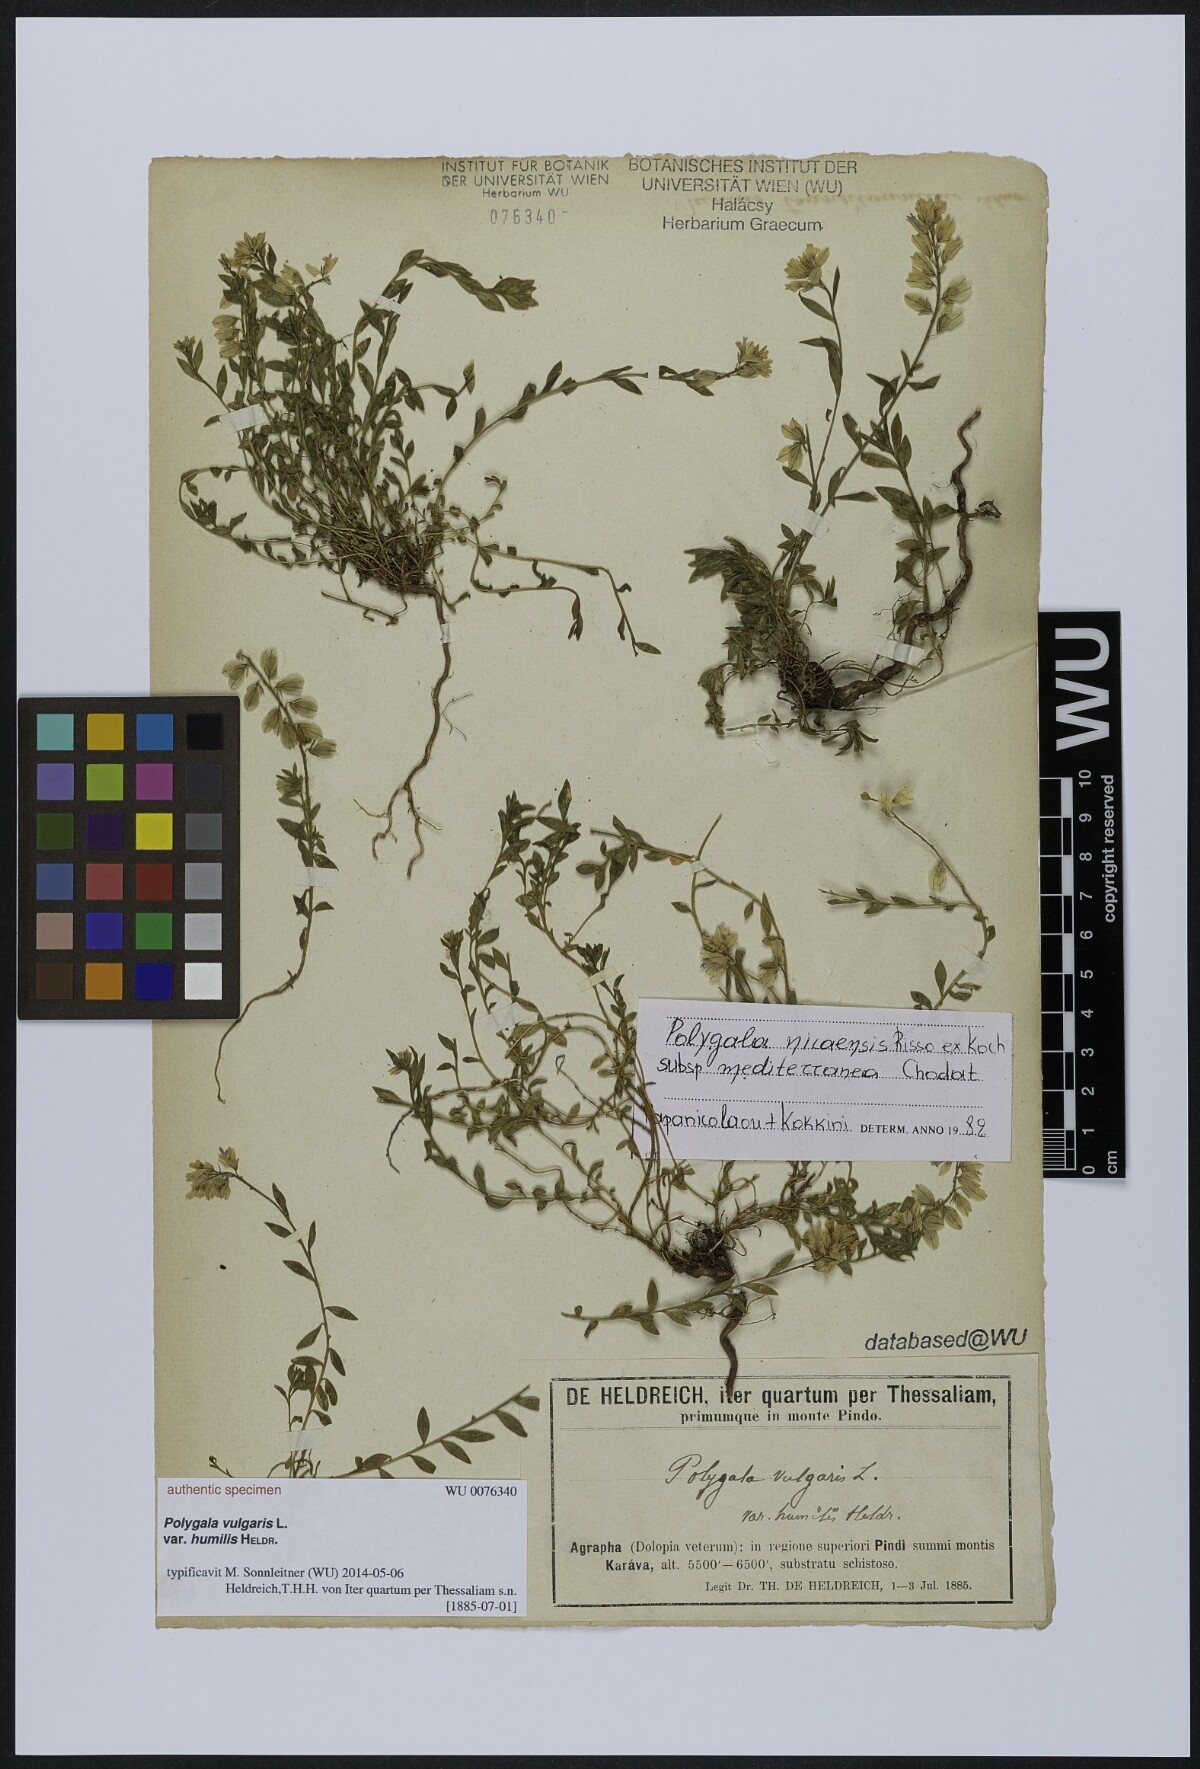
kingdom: Plantae
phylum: Tracheophyta
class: Magnoliopsida
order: Fabales
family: Polygalaceae
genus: Polygala
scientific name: Polygala vulgaris
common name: Common milkwort
